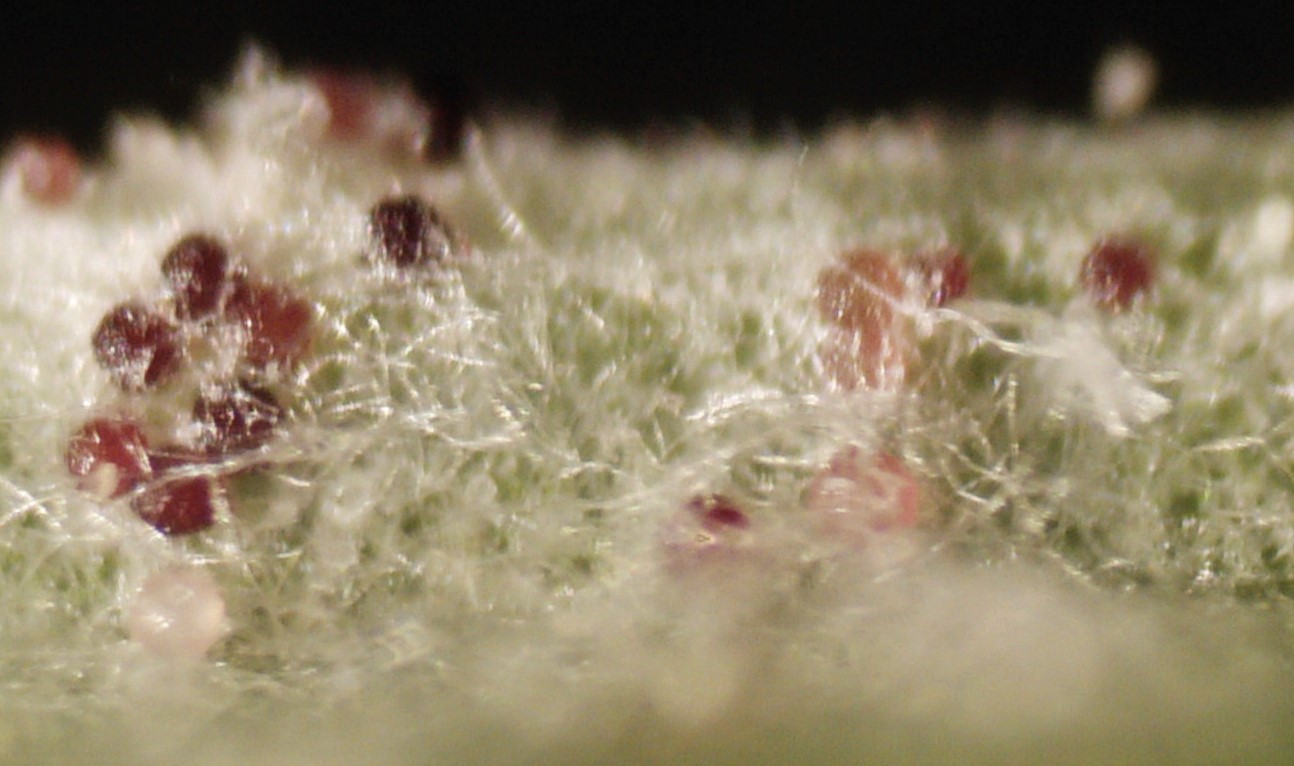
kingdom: Fungi
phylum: Ascomycota
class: Leotiomycetes
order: Helotiales
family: Erysiphaceae
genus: Neoerysiphe
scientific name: Neoerysiphe galii
